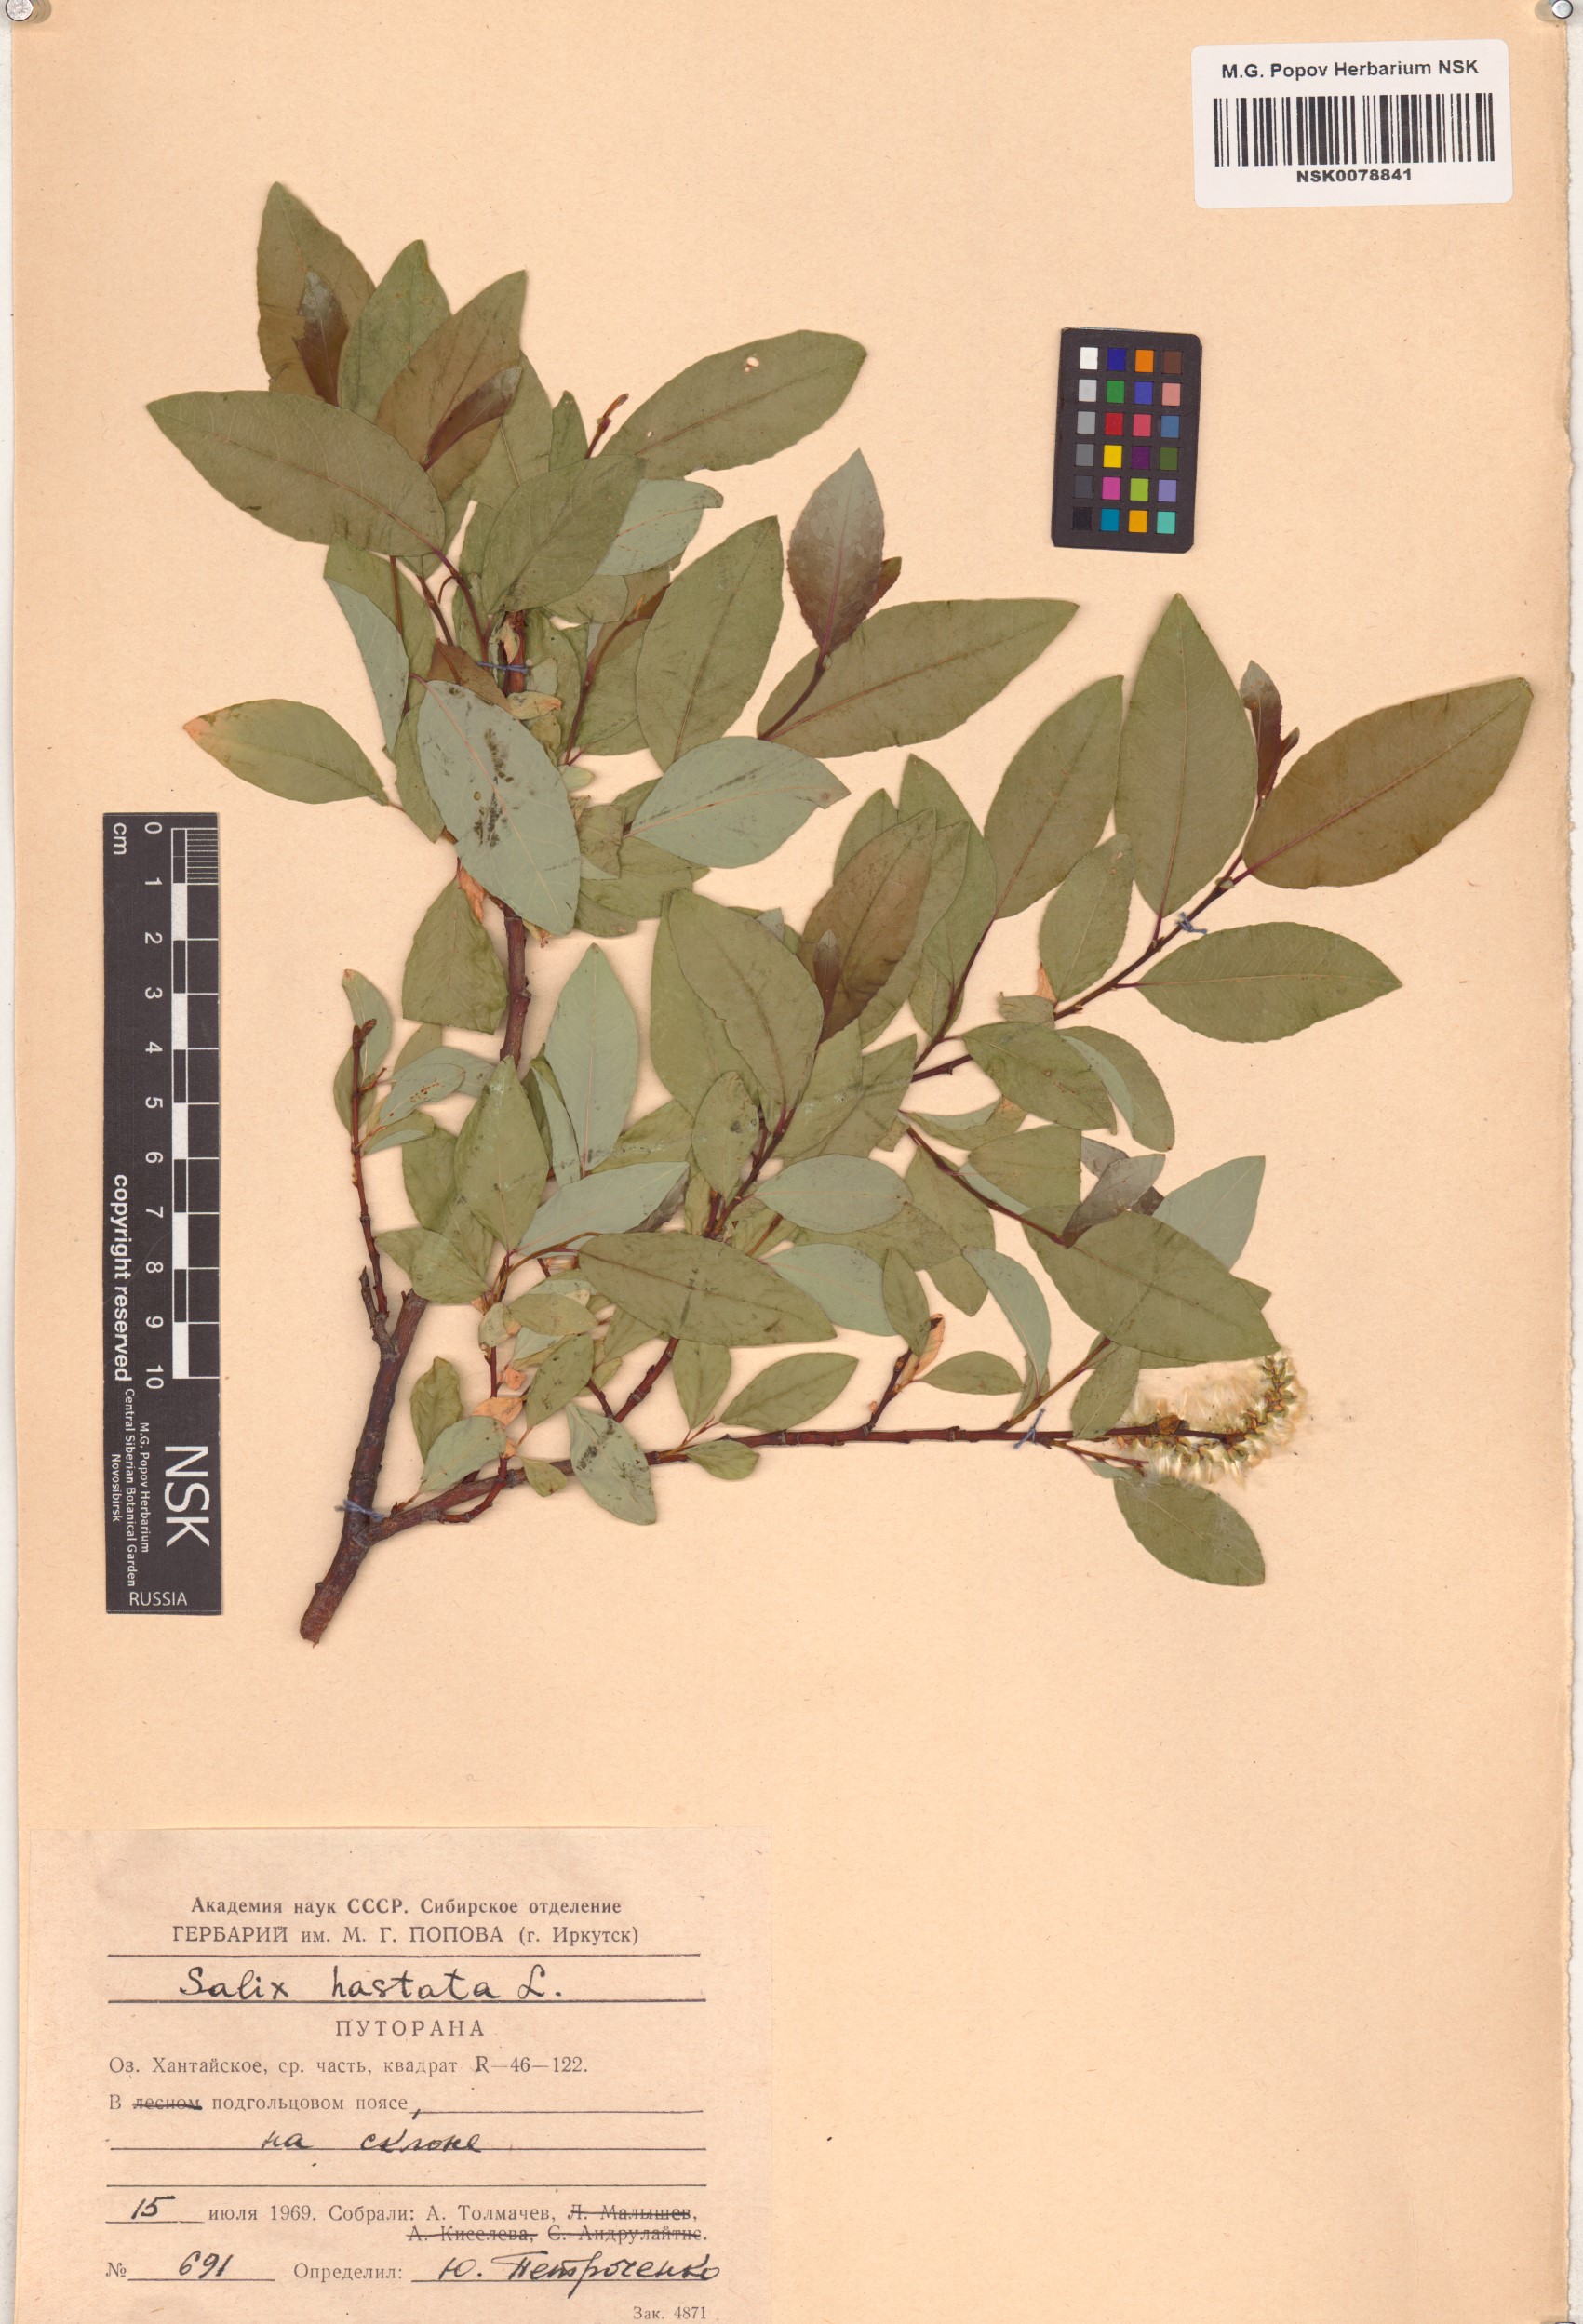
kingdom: Plantae
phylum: Tracheophyta
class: Magnoliopsida
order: Malpighiales
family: Salicaceae
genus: Salix
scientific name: Salix hastata
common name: Halberd willow
